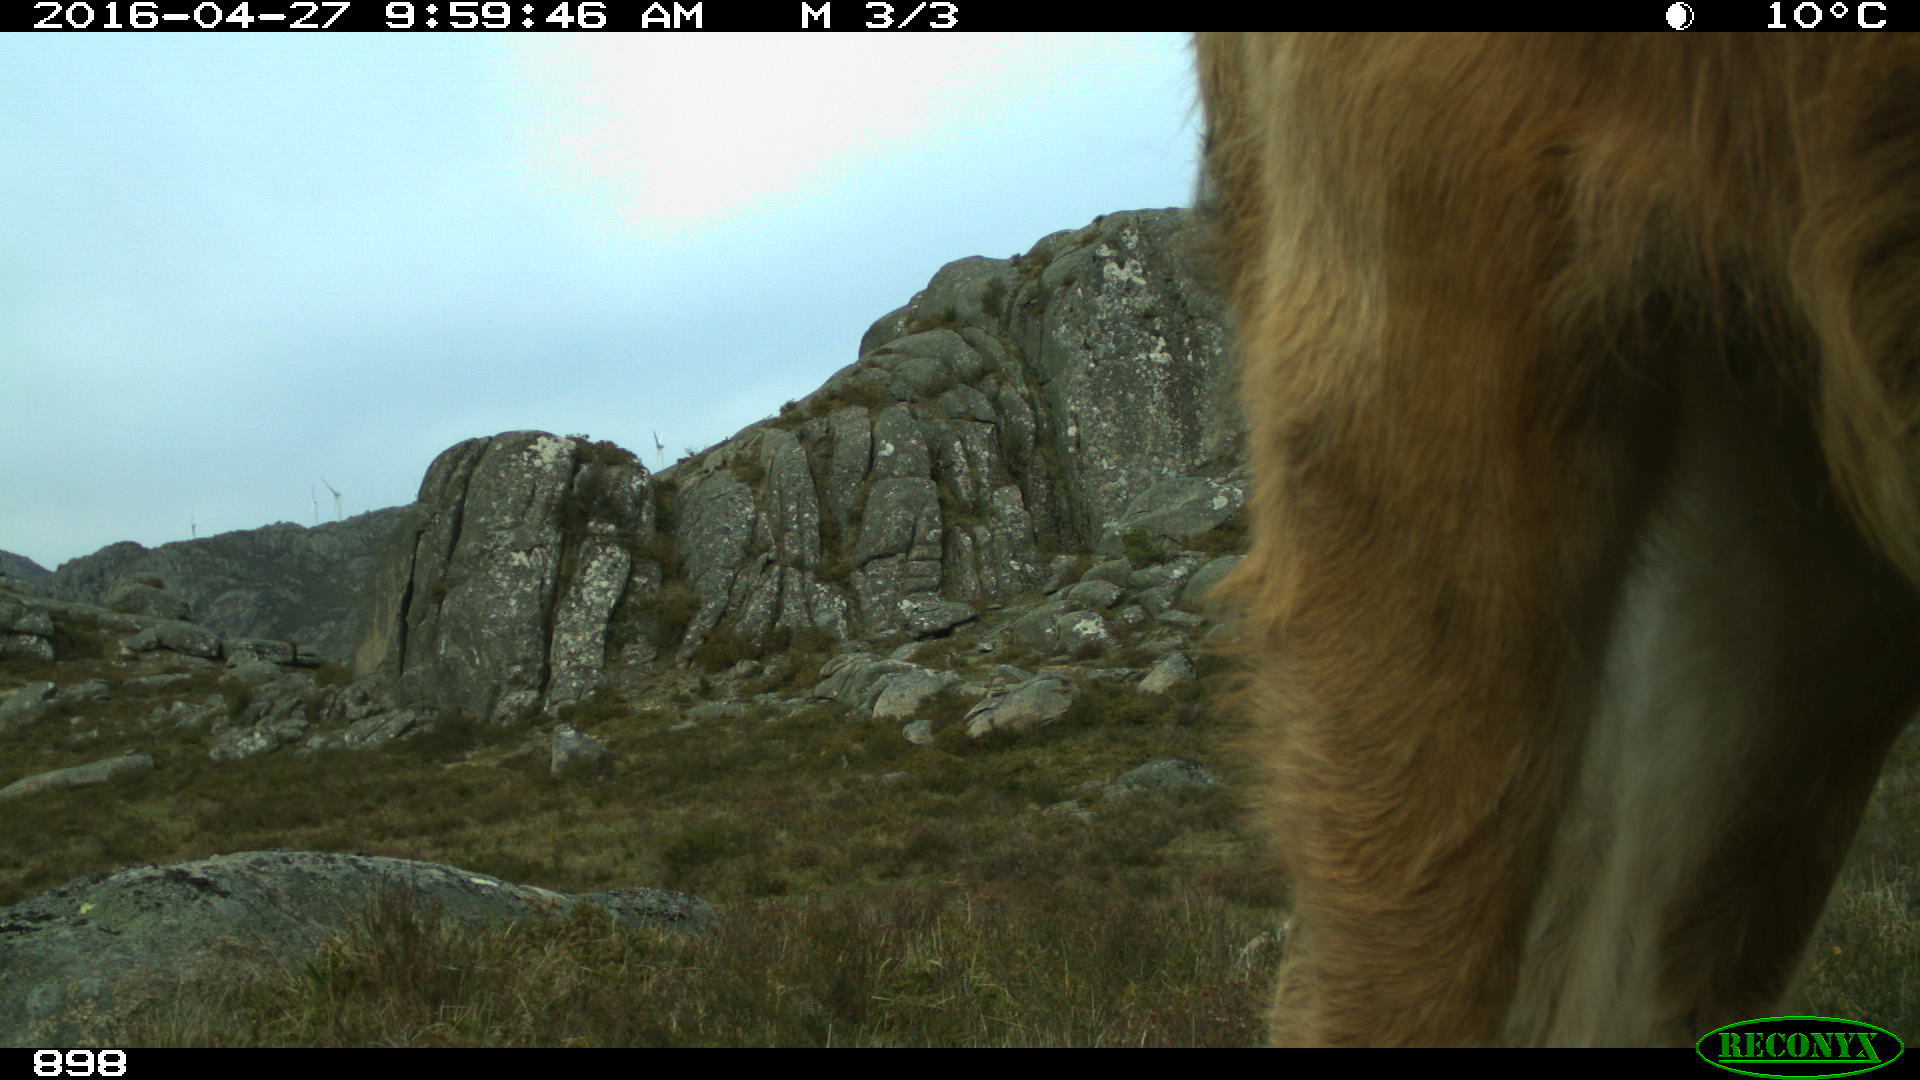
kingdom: Animalia
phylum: Chordata
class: Mammalia
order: Artiodactyla
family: Bovidae
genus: Bos
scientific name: Bos taurus
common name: Domesticated cattle
